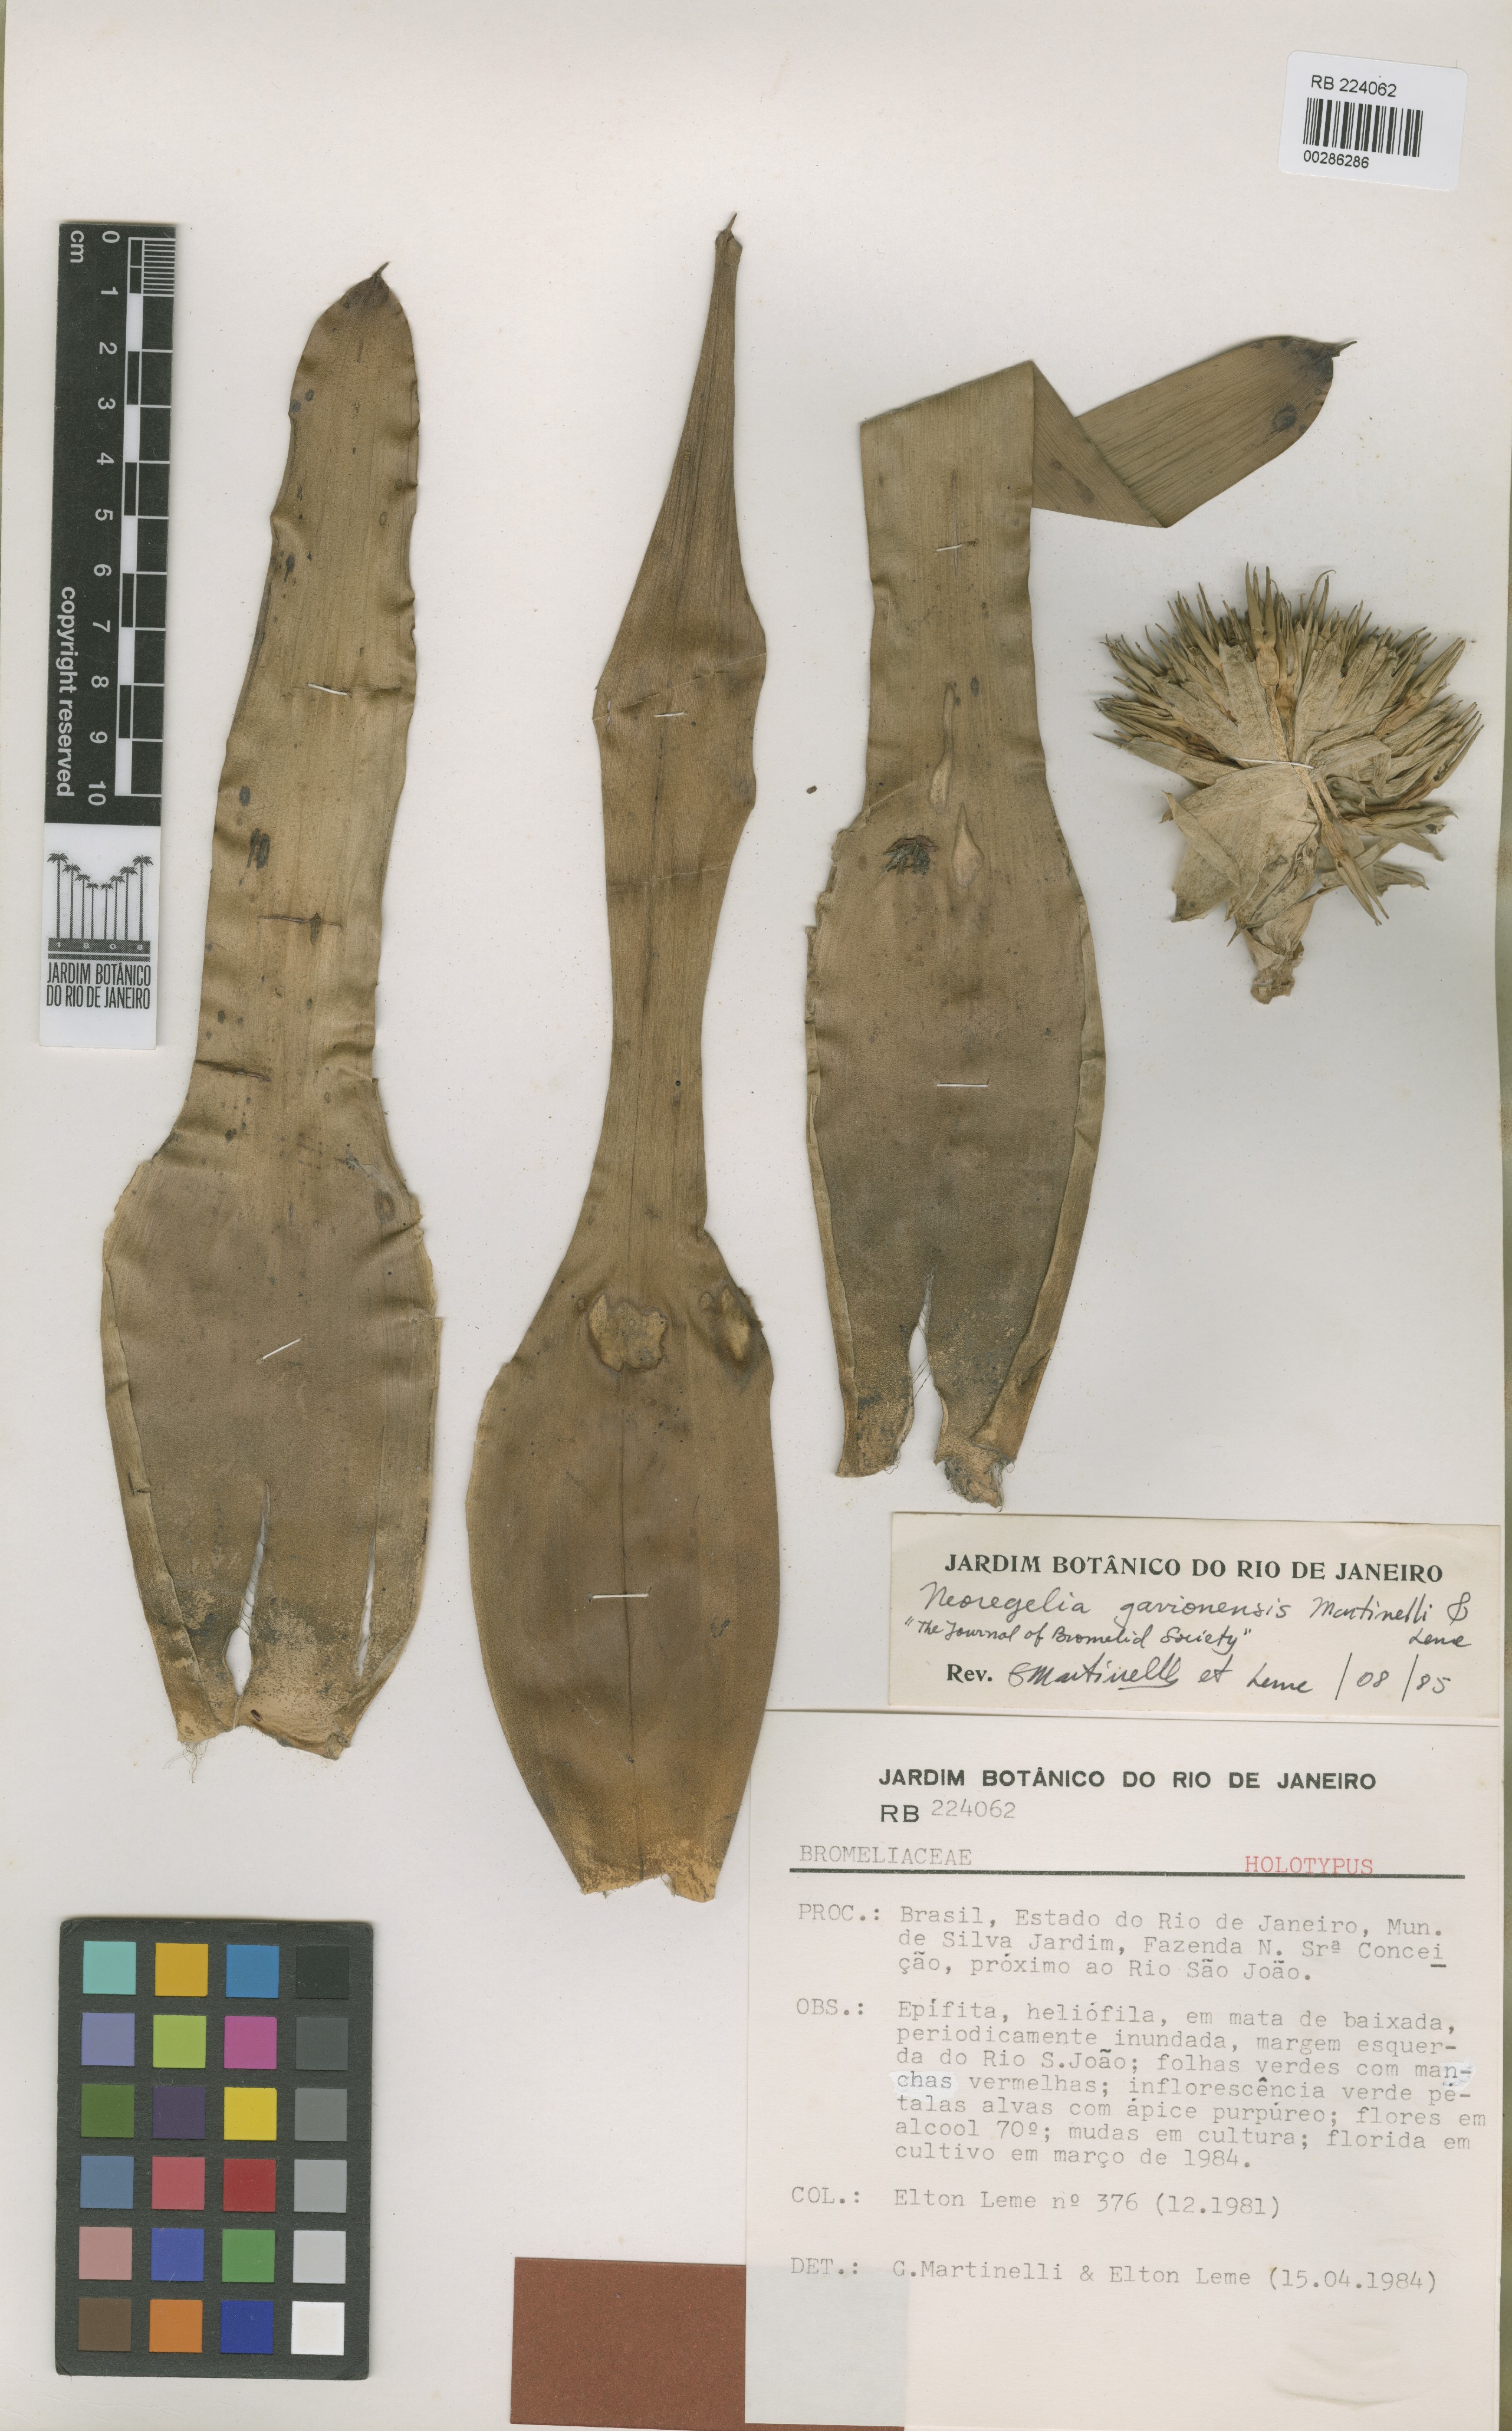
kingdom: Plantae
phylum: Tracheophyta
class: Liliopsida
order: Poales
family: Bromeliaceae
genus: Neoregelia
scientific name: Neoregelia gavionensis
